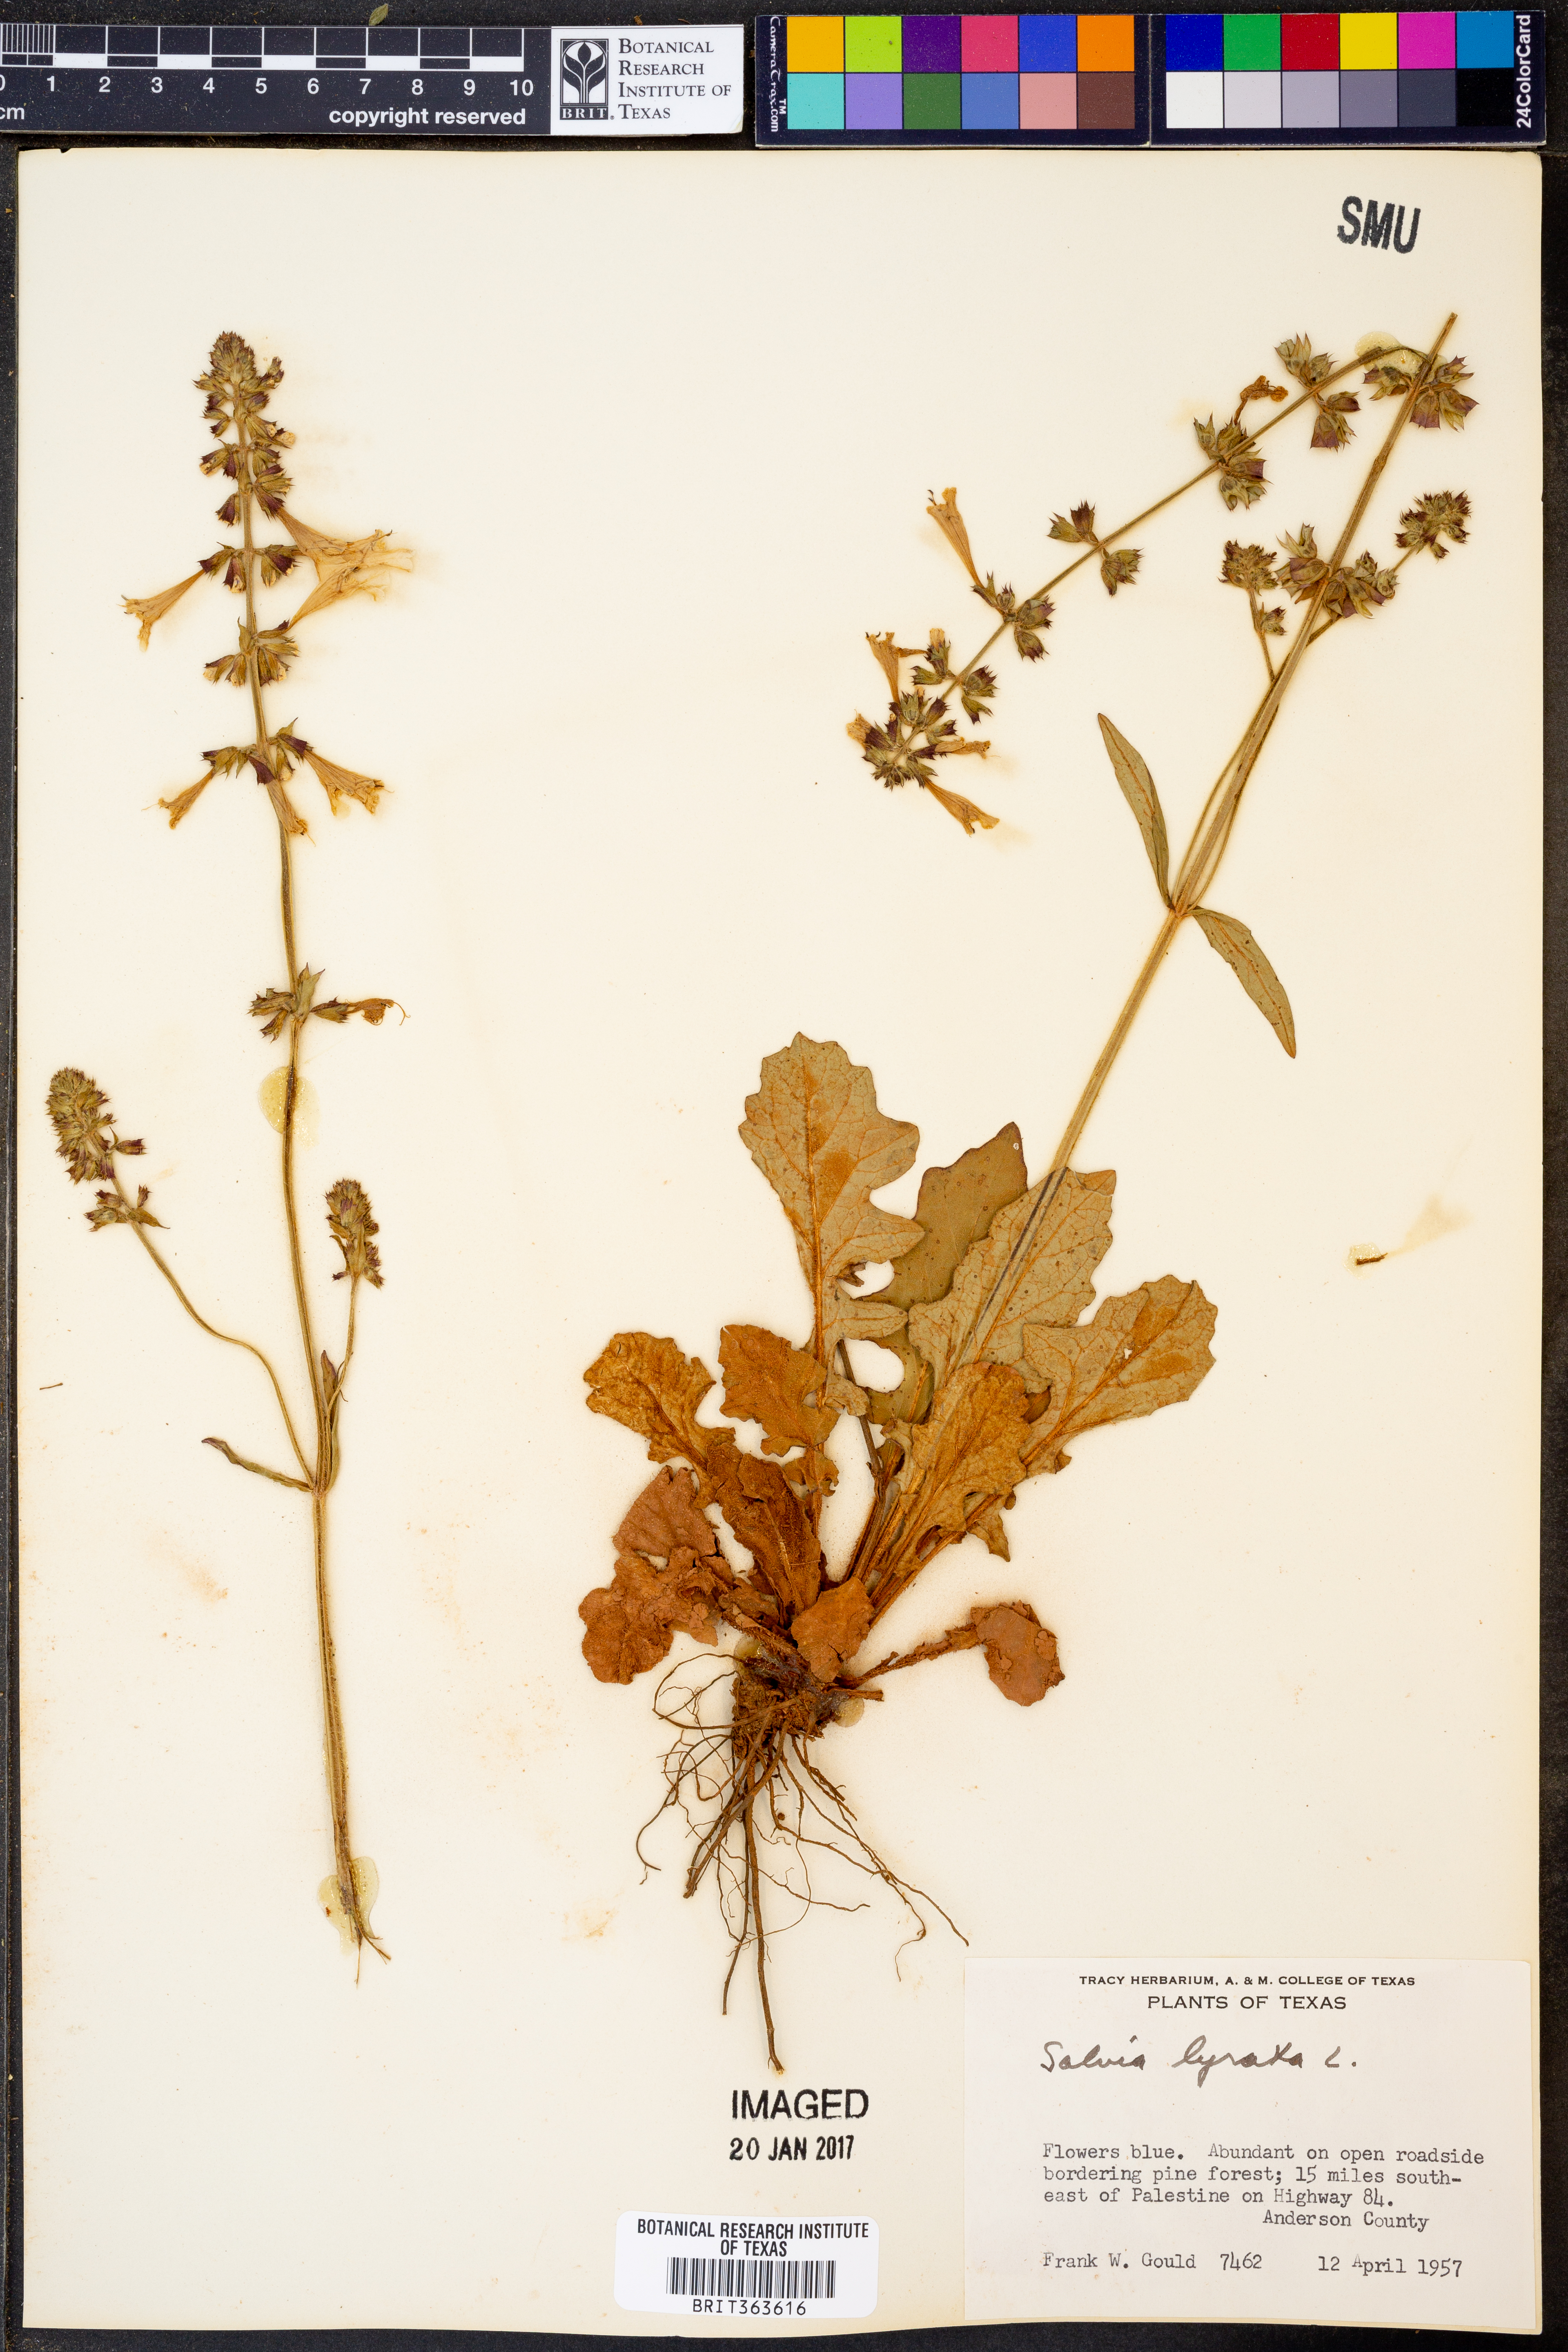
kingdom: Plantae
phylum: Tracheophyta
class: Magnoliopsida
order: Lamiales
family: Lamiaceae
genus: Salvia
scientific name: Salvia lyrata
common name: Cancerweed
